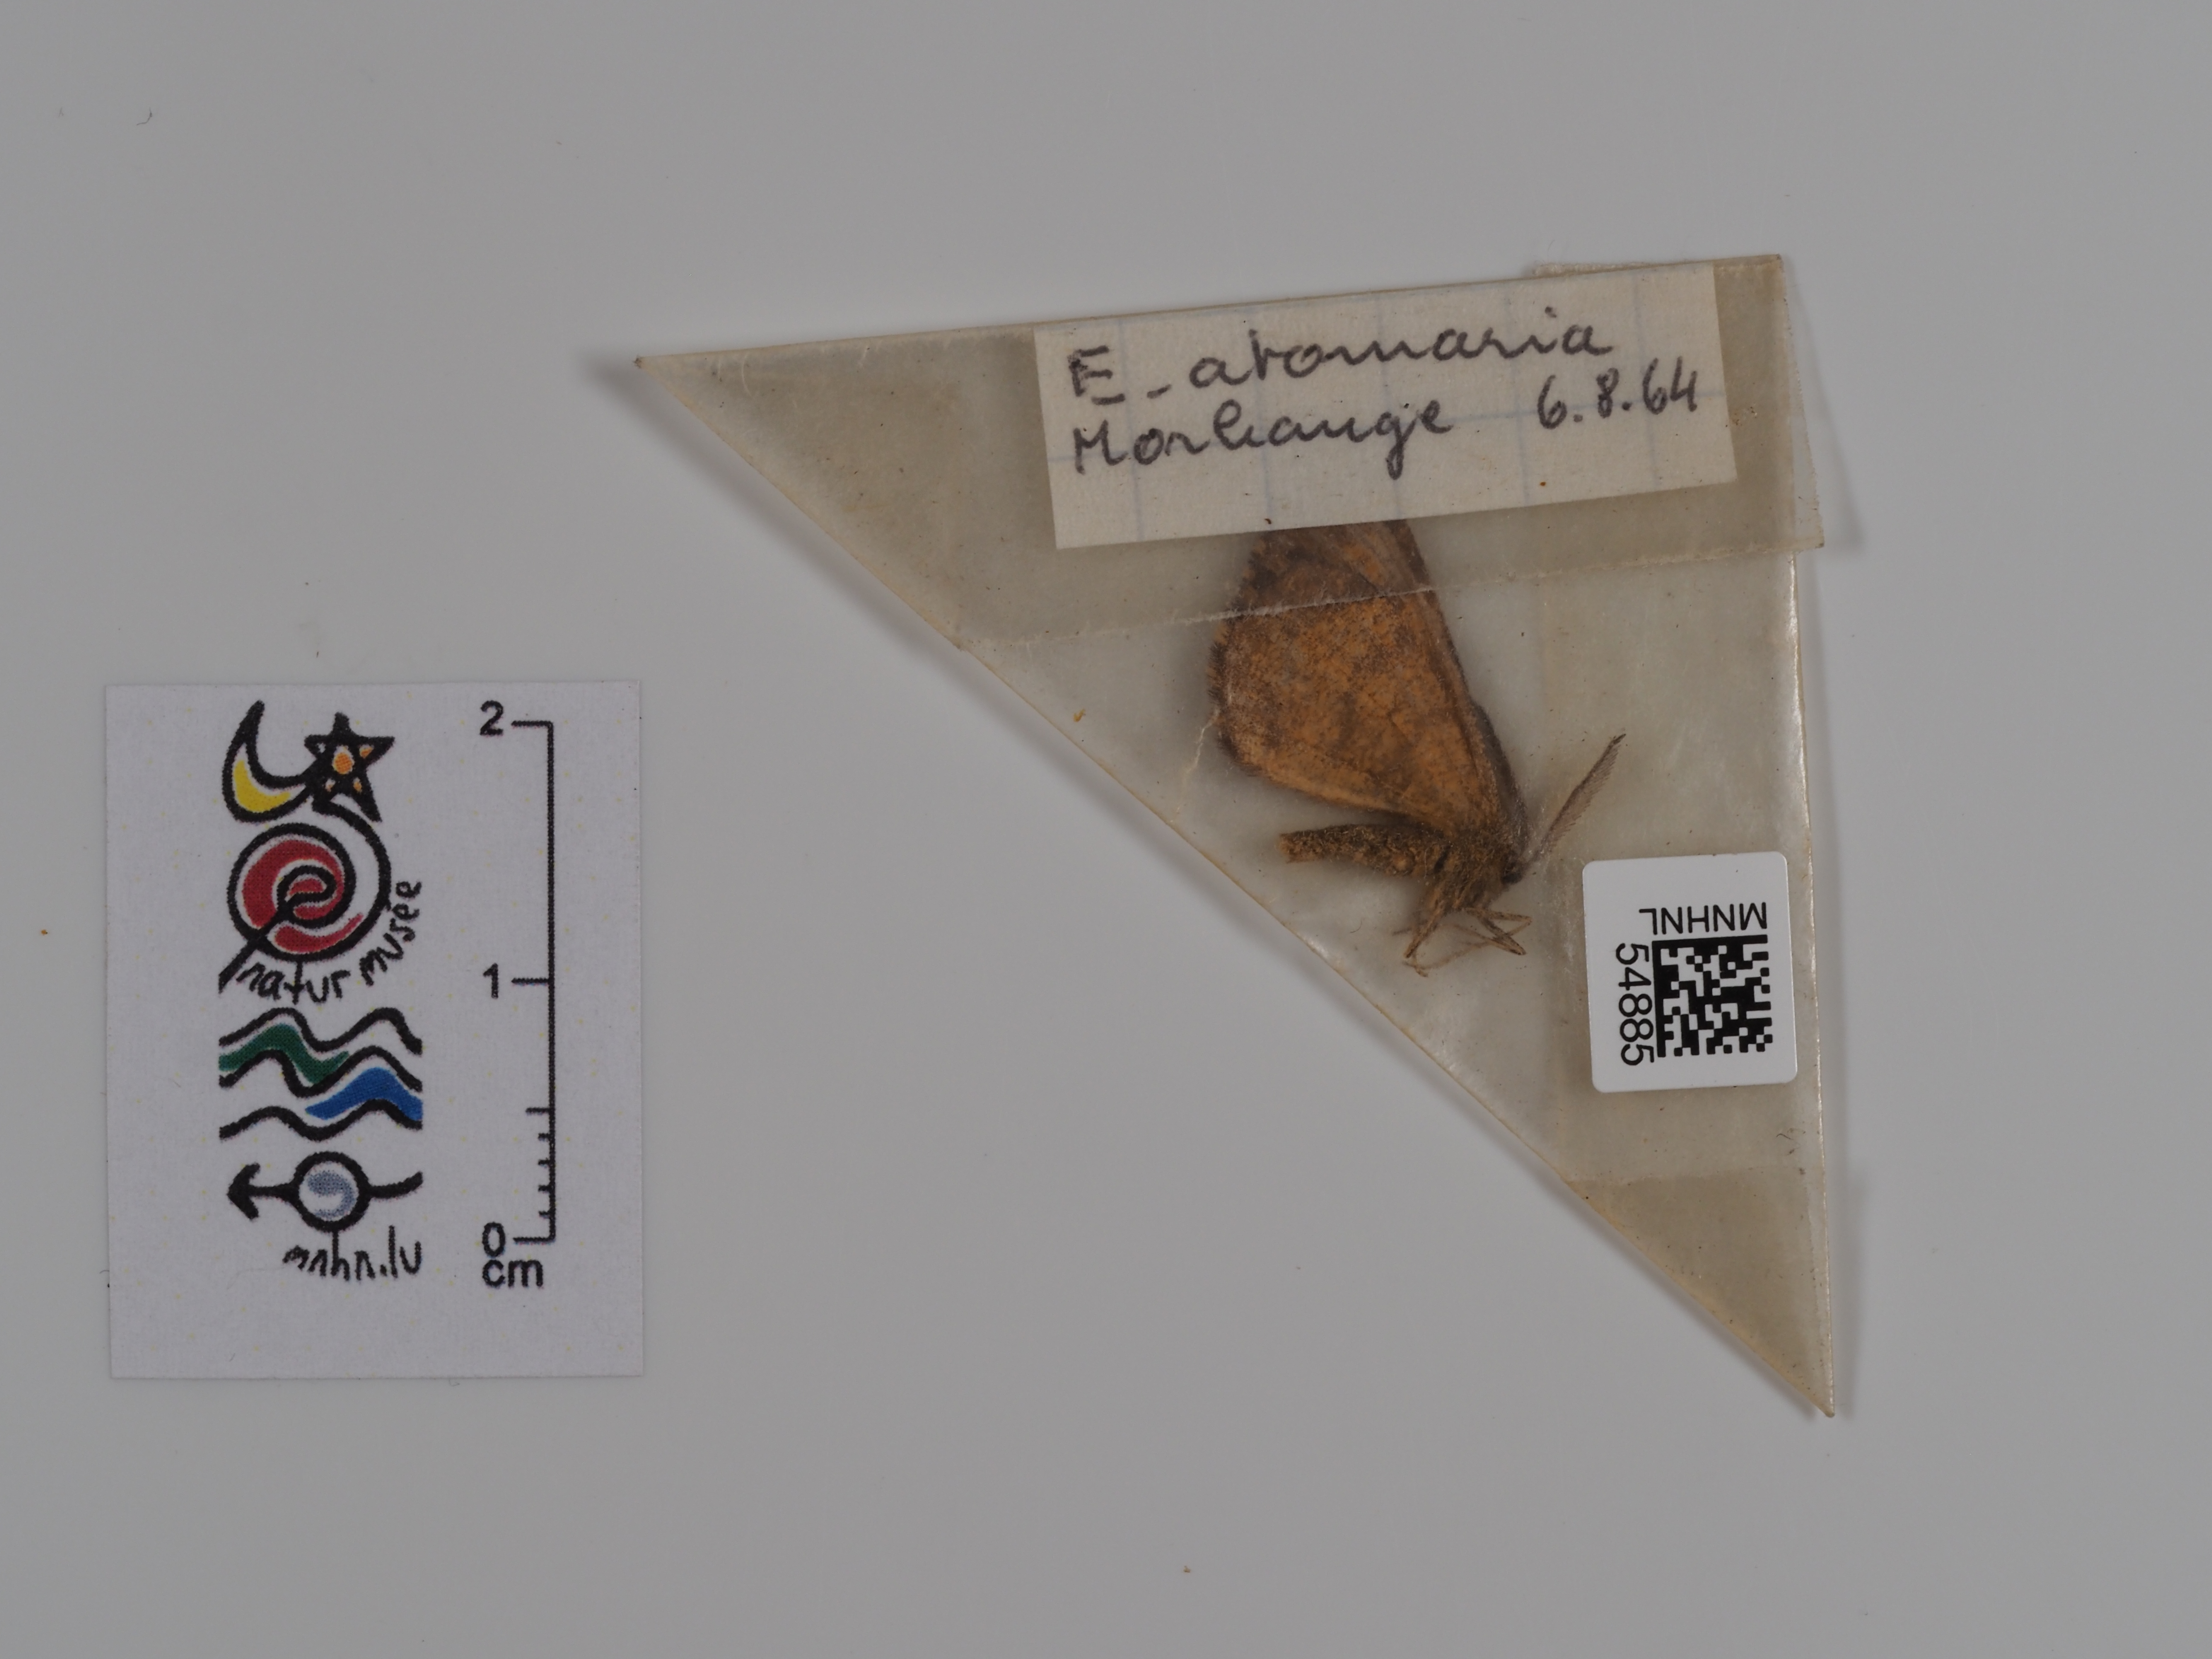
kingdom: Animalia
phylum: Arthropoda
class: Insecta
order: Lepidoptera
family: Geometridae
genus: Ematurga
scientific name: Ematurga atomaria
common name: Common heath
